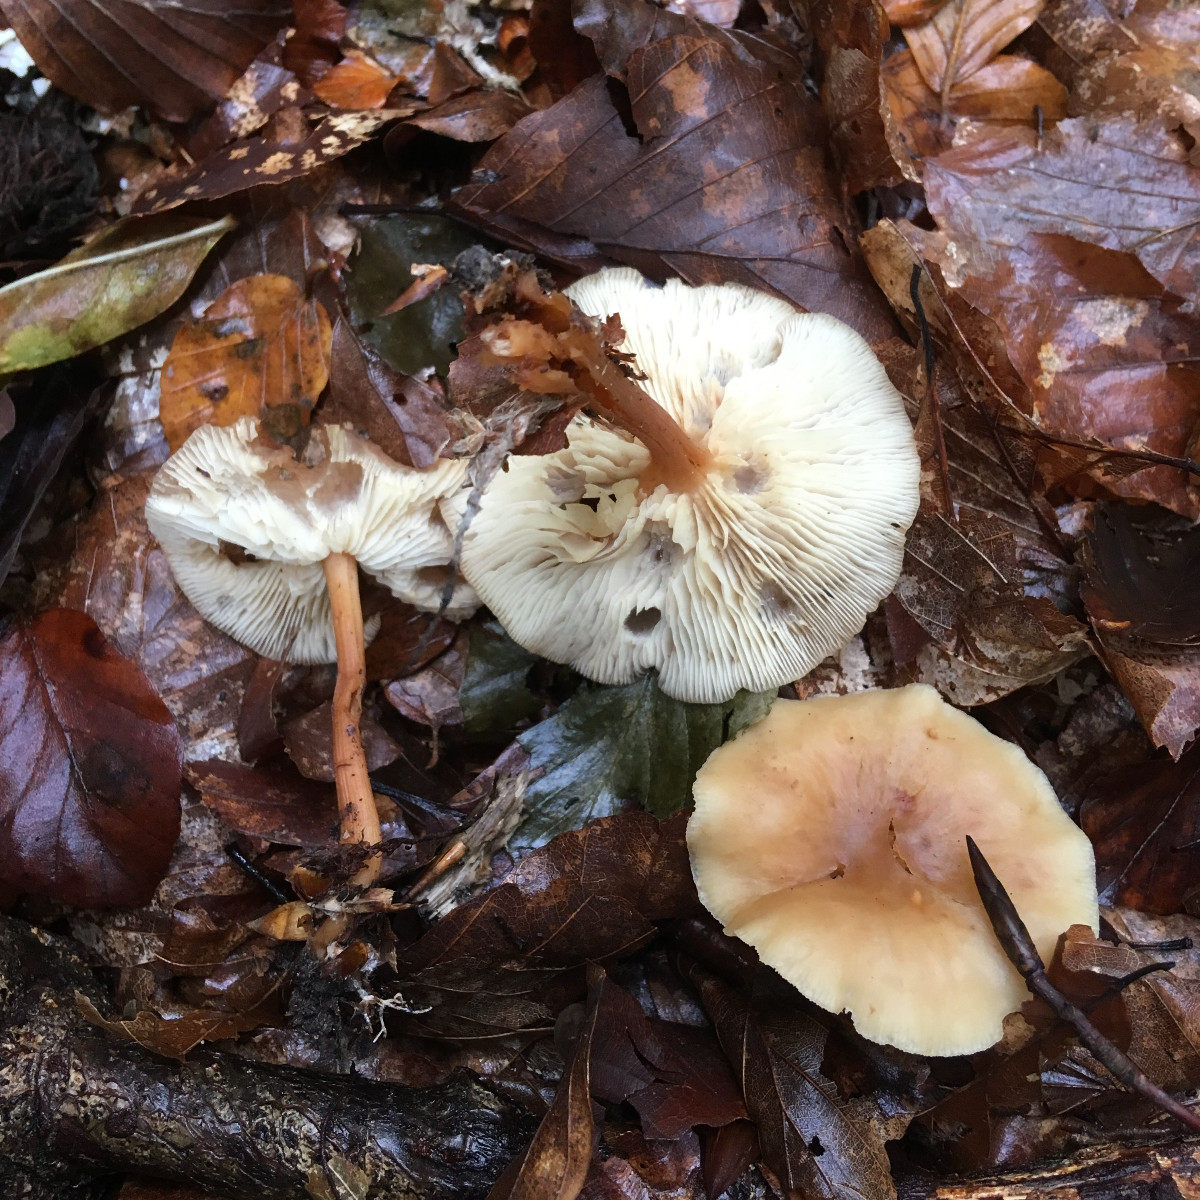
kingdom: Fungi
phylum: Basidiomycota
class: Agaricomycetes
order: Agaricales
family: Omphalotaceae
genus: Gymnopus
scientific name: Gymnopus dryophilus
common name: løv-fladhat
